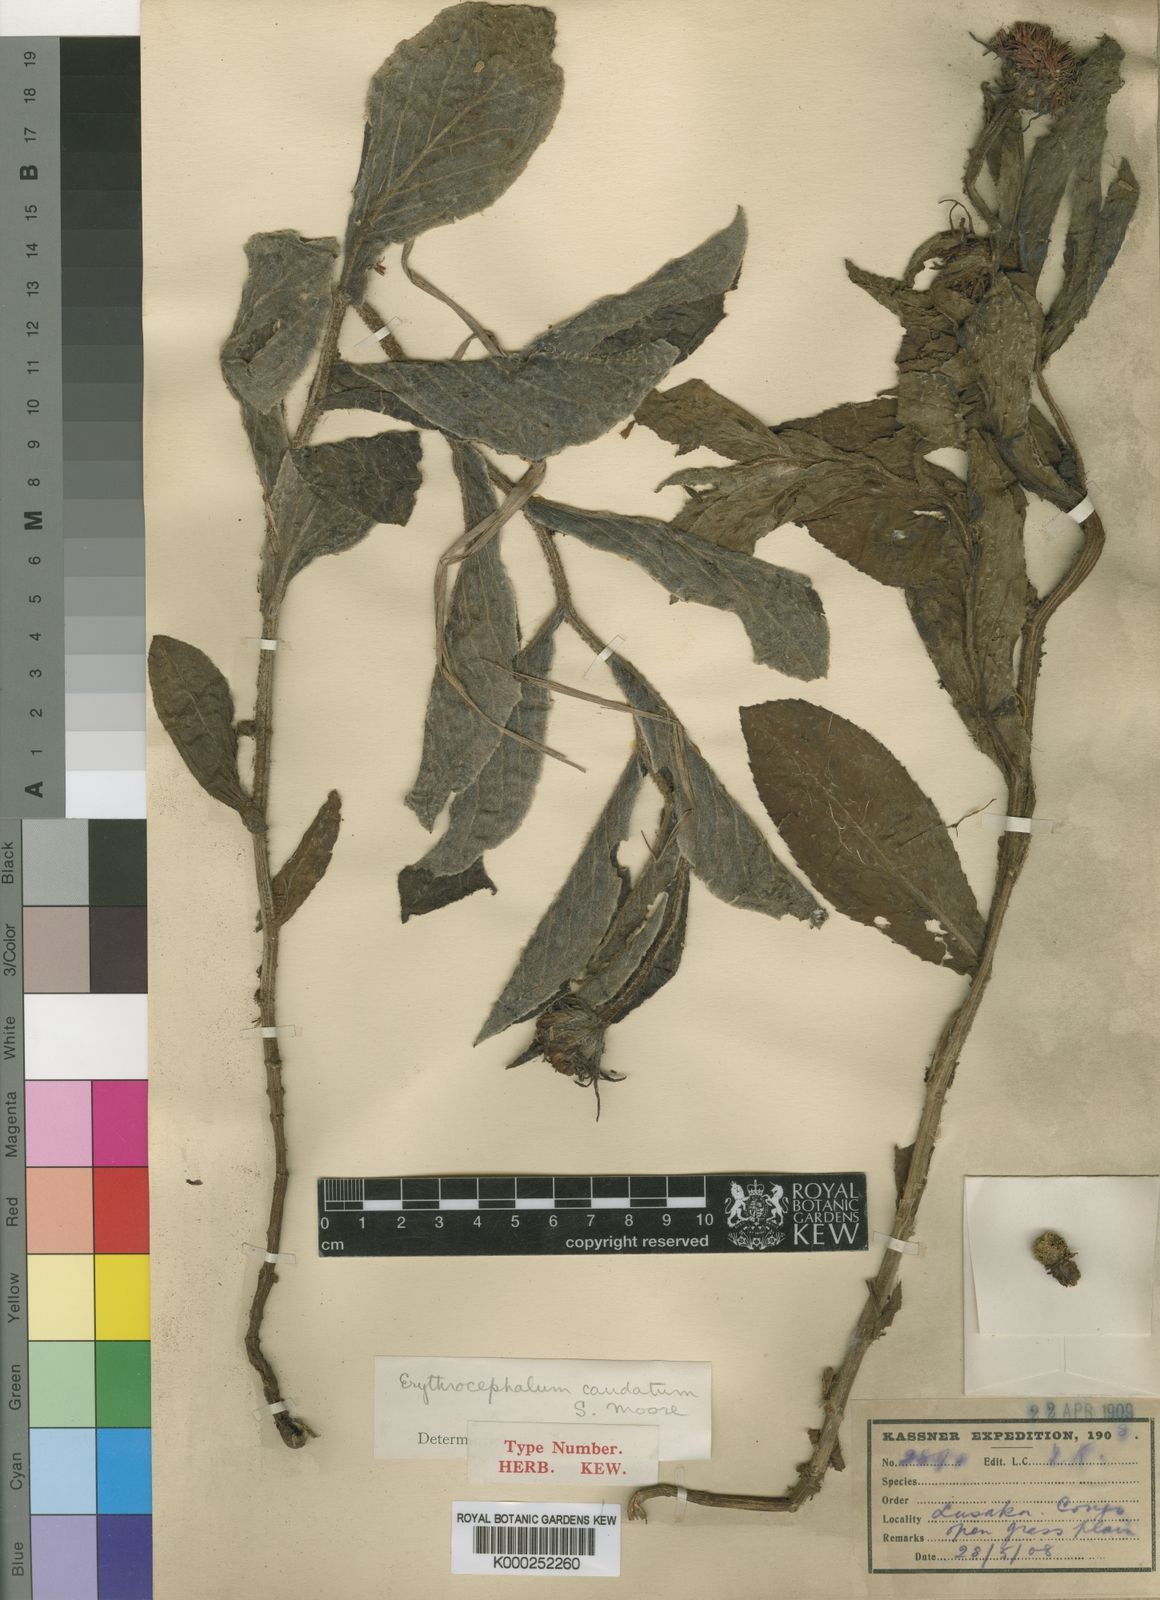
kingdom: Plantae
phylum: Tracheophyta
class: Magnoliopsida
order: Asterales
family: Asteraceae
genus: Erythrocephalum
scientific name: Erythrocephalum longifolium
